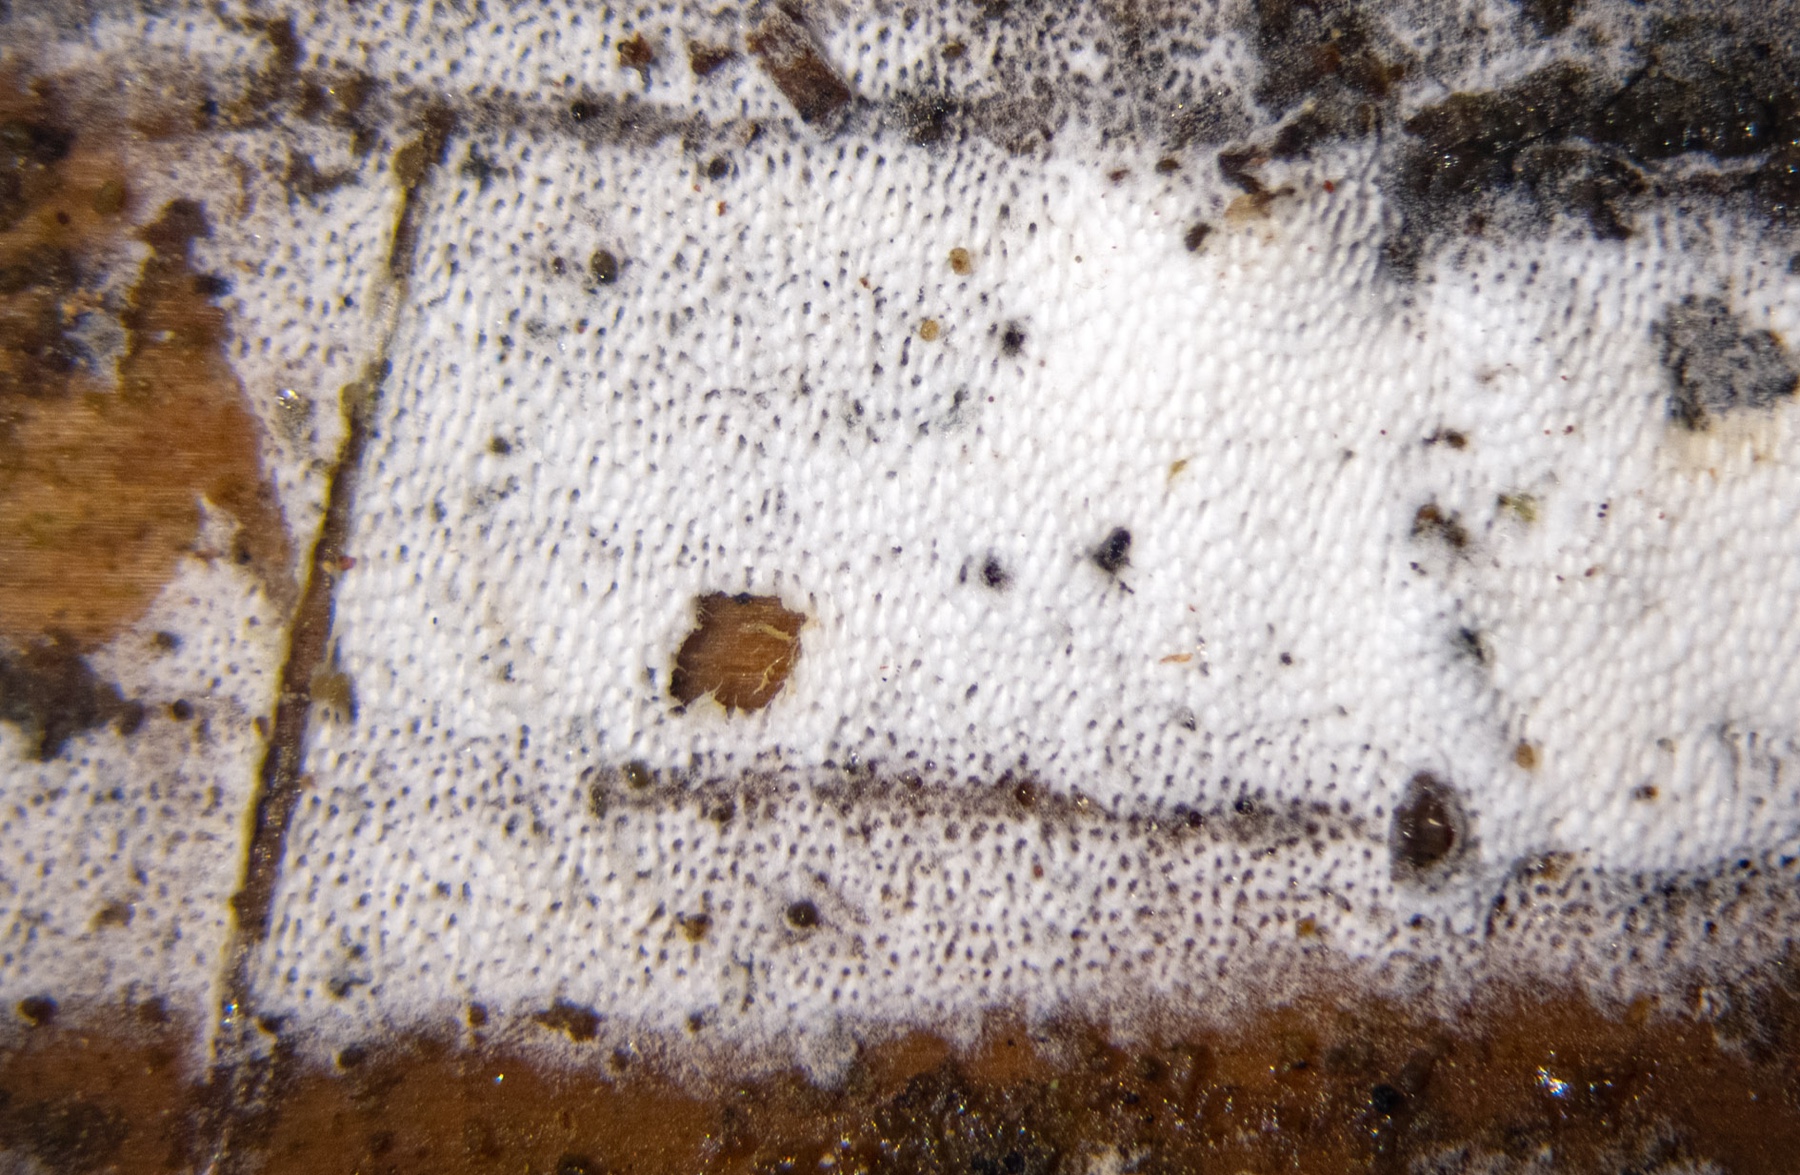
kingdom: Fungi
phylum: Basidiomycota
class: Agaricomycetes
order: Polyporales
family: Incrustoporiaceae
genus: Skeletocutis
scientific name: Skeletocutis kuehneri
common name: smalsporet krystalporesvamp
